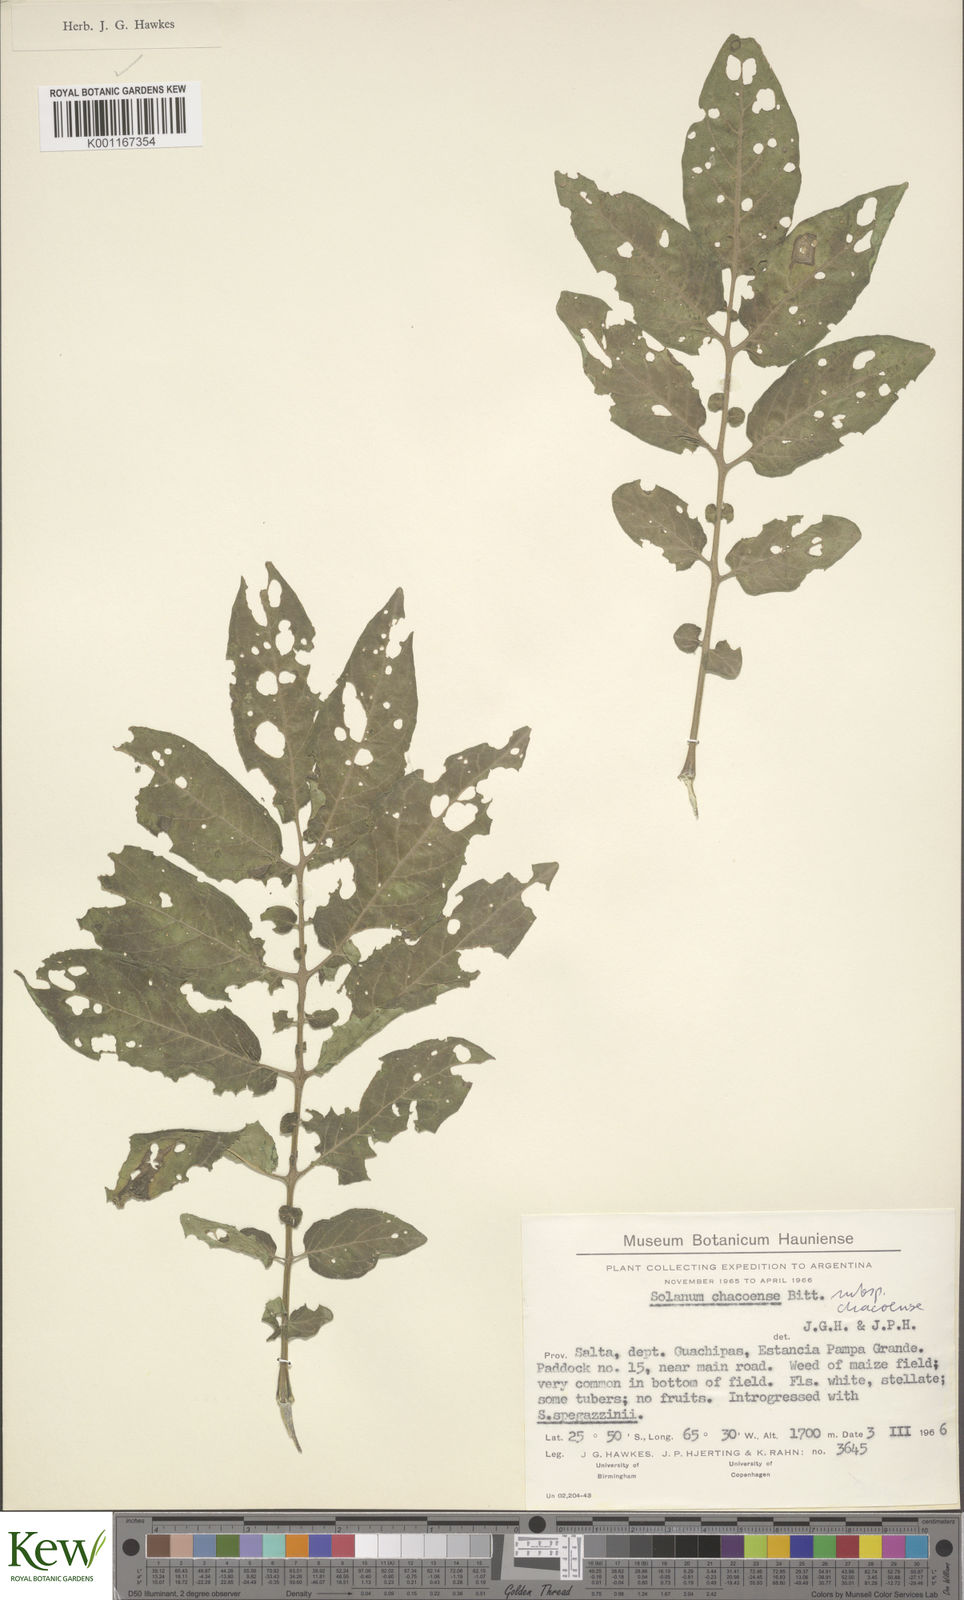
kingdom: Plantae
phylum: Tracheophyta
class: Magnoliopsida
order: Solanales
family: Solanaceae
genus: Solanum
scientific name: Solanum chacoense
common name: Chaco potato
